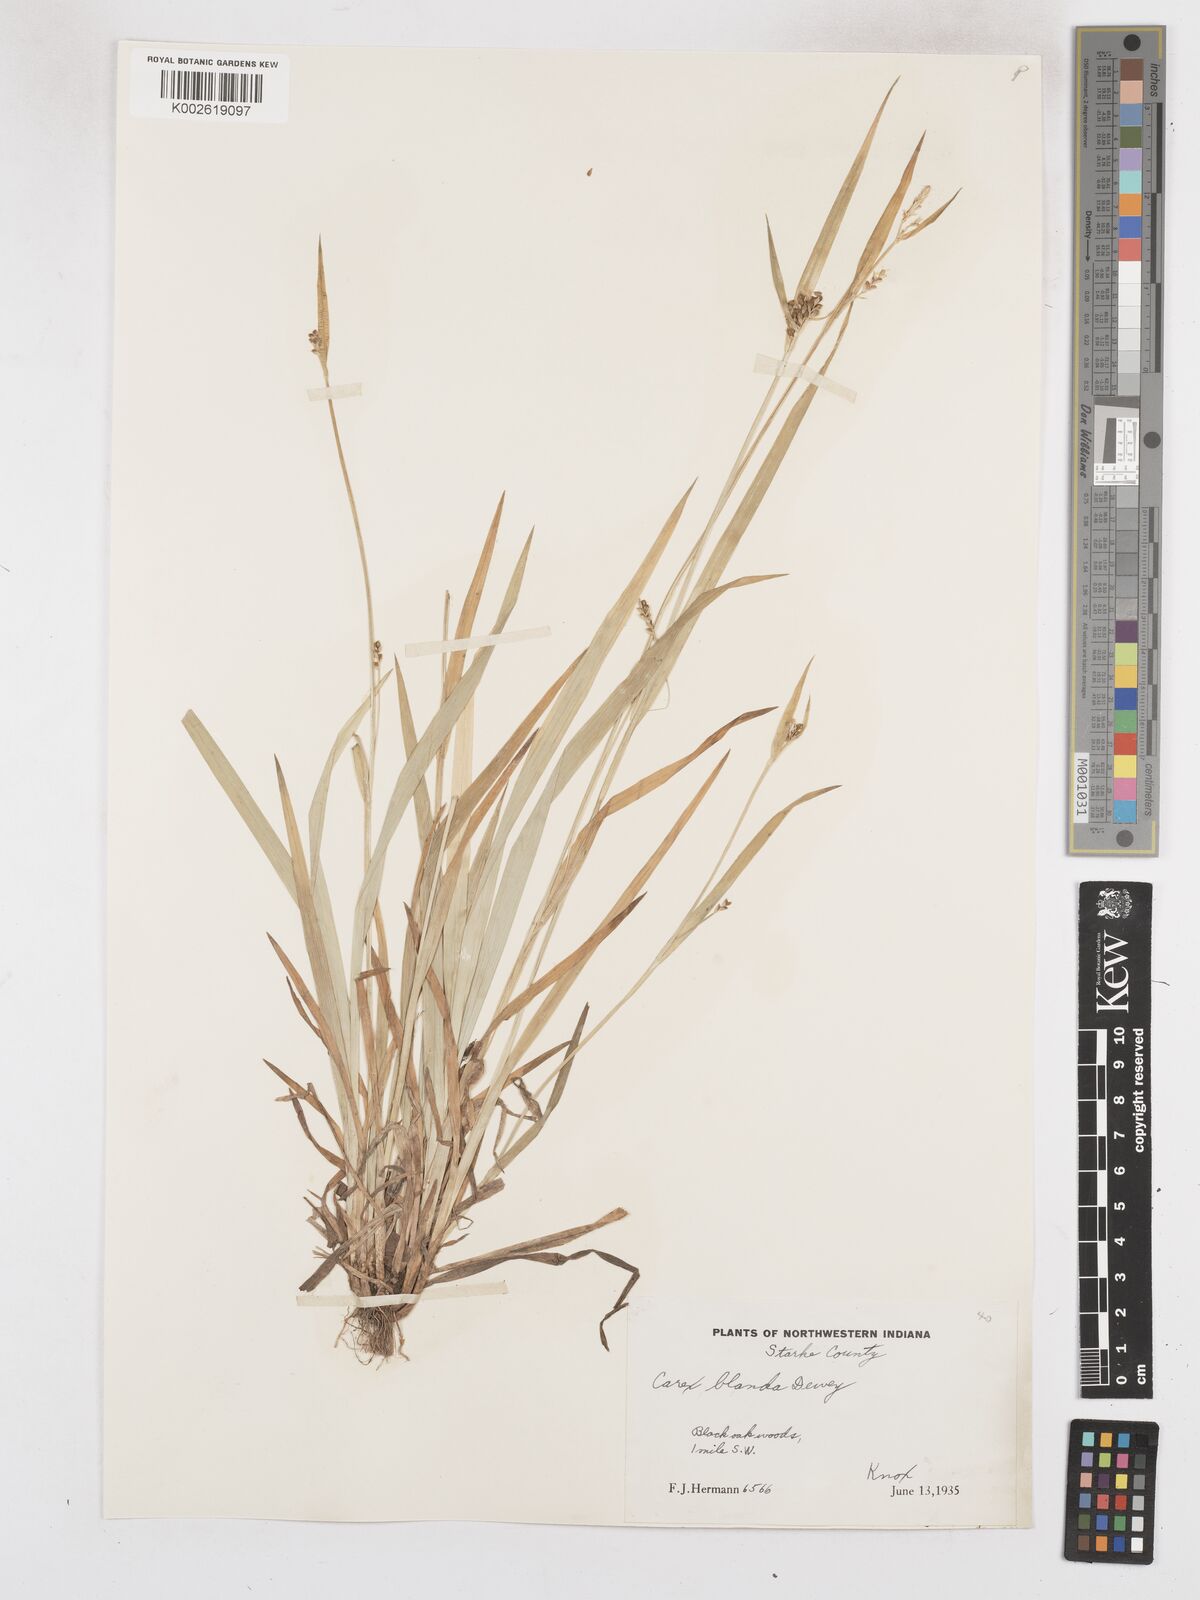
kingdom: Plantae
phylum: Tracheophyta
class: Liliopsida
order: Poales
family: Cyperaceae
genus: Carex
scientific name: Carex blanda
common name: Bland sedge
